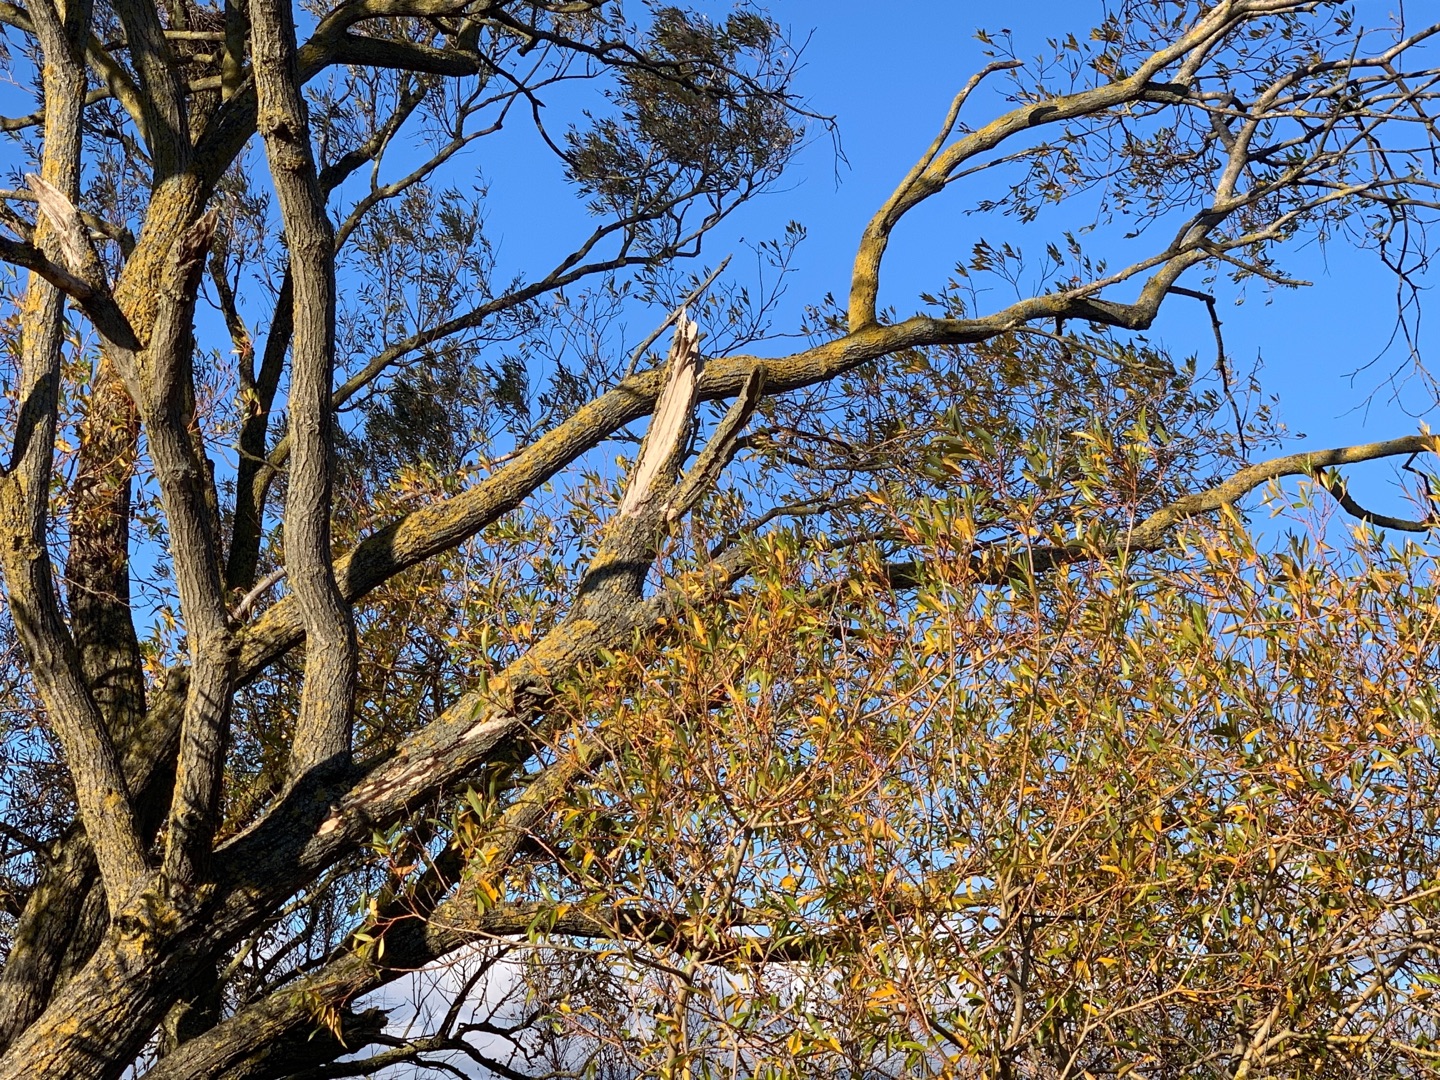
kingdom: Plantae
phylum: Tracheophyta
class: Magnoliopsida
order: Malpighiales
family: Salicaceae
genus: Salix
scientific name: Salix
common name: Pileslægten
